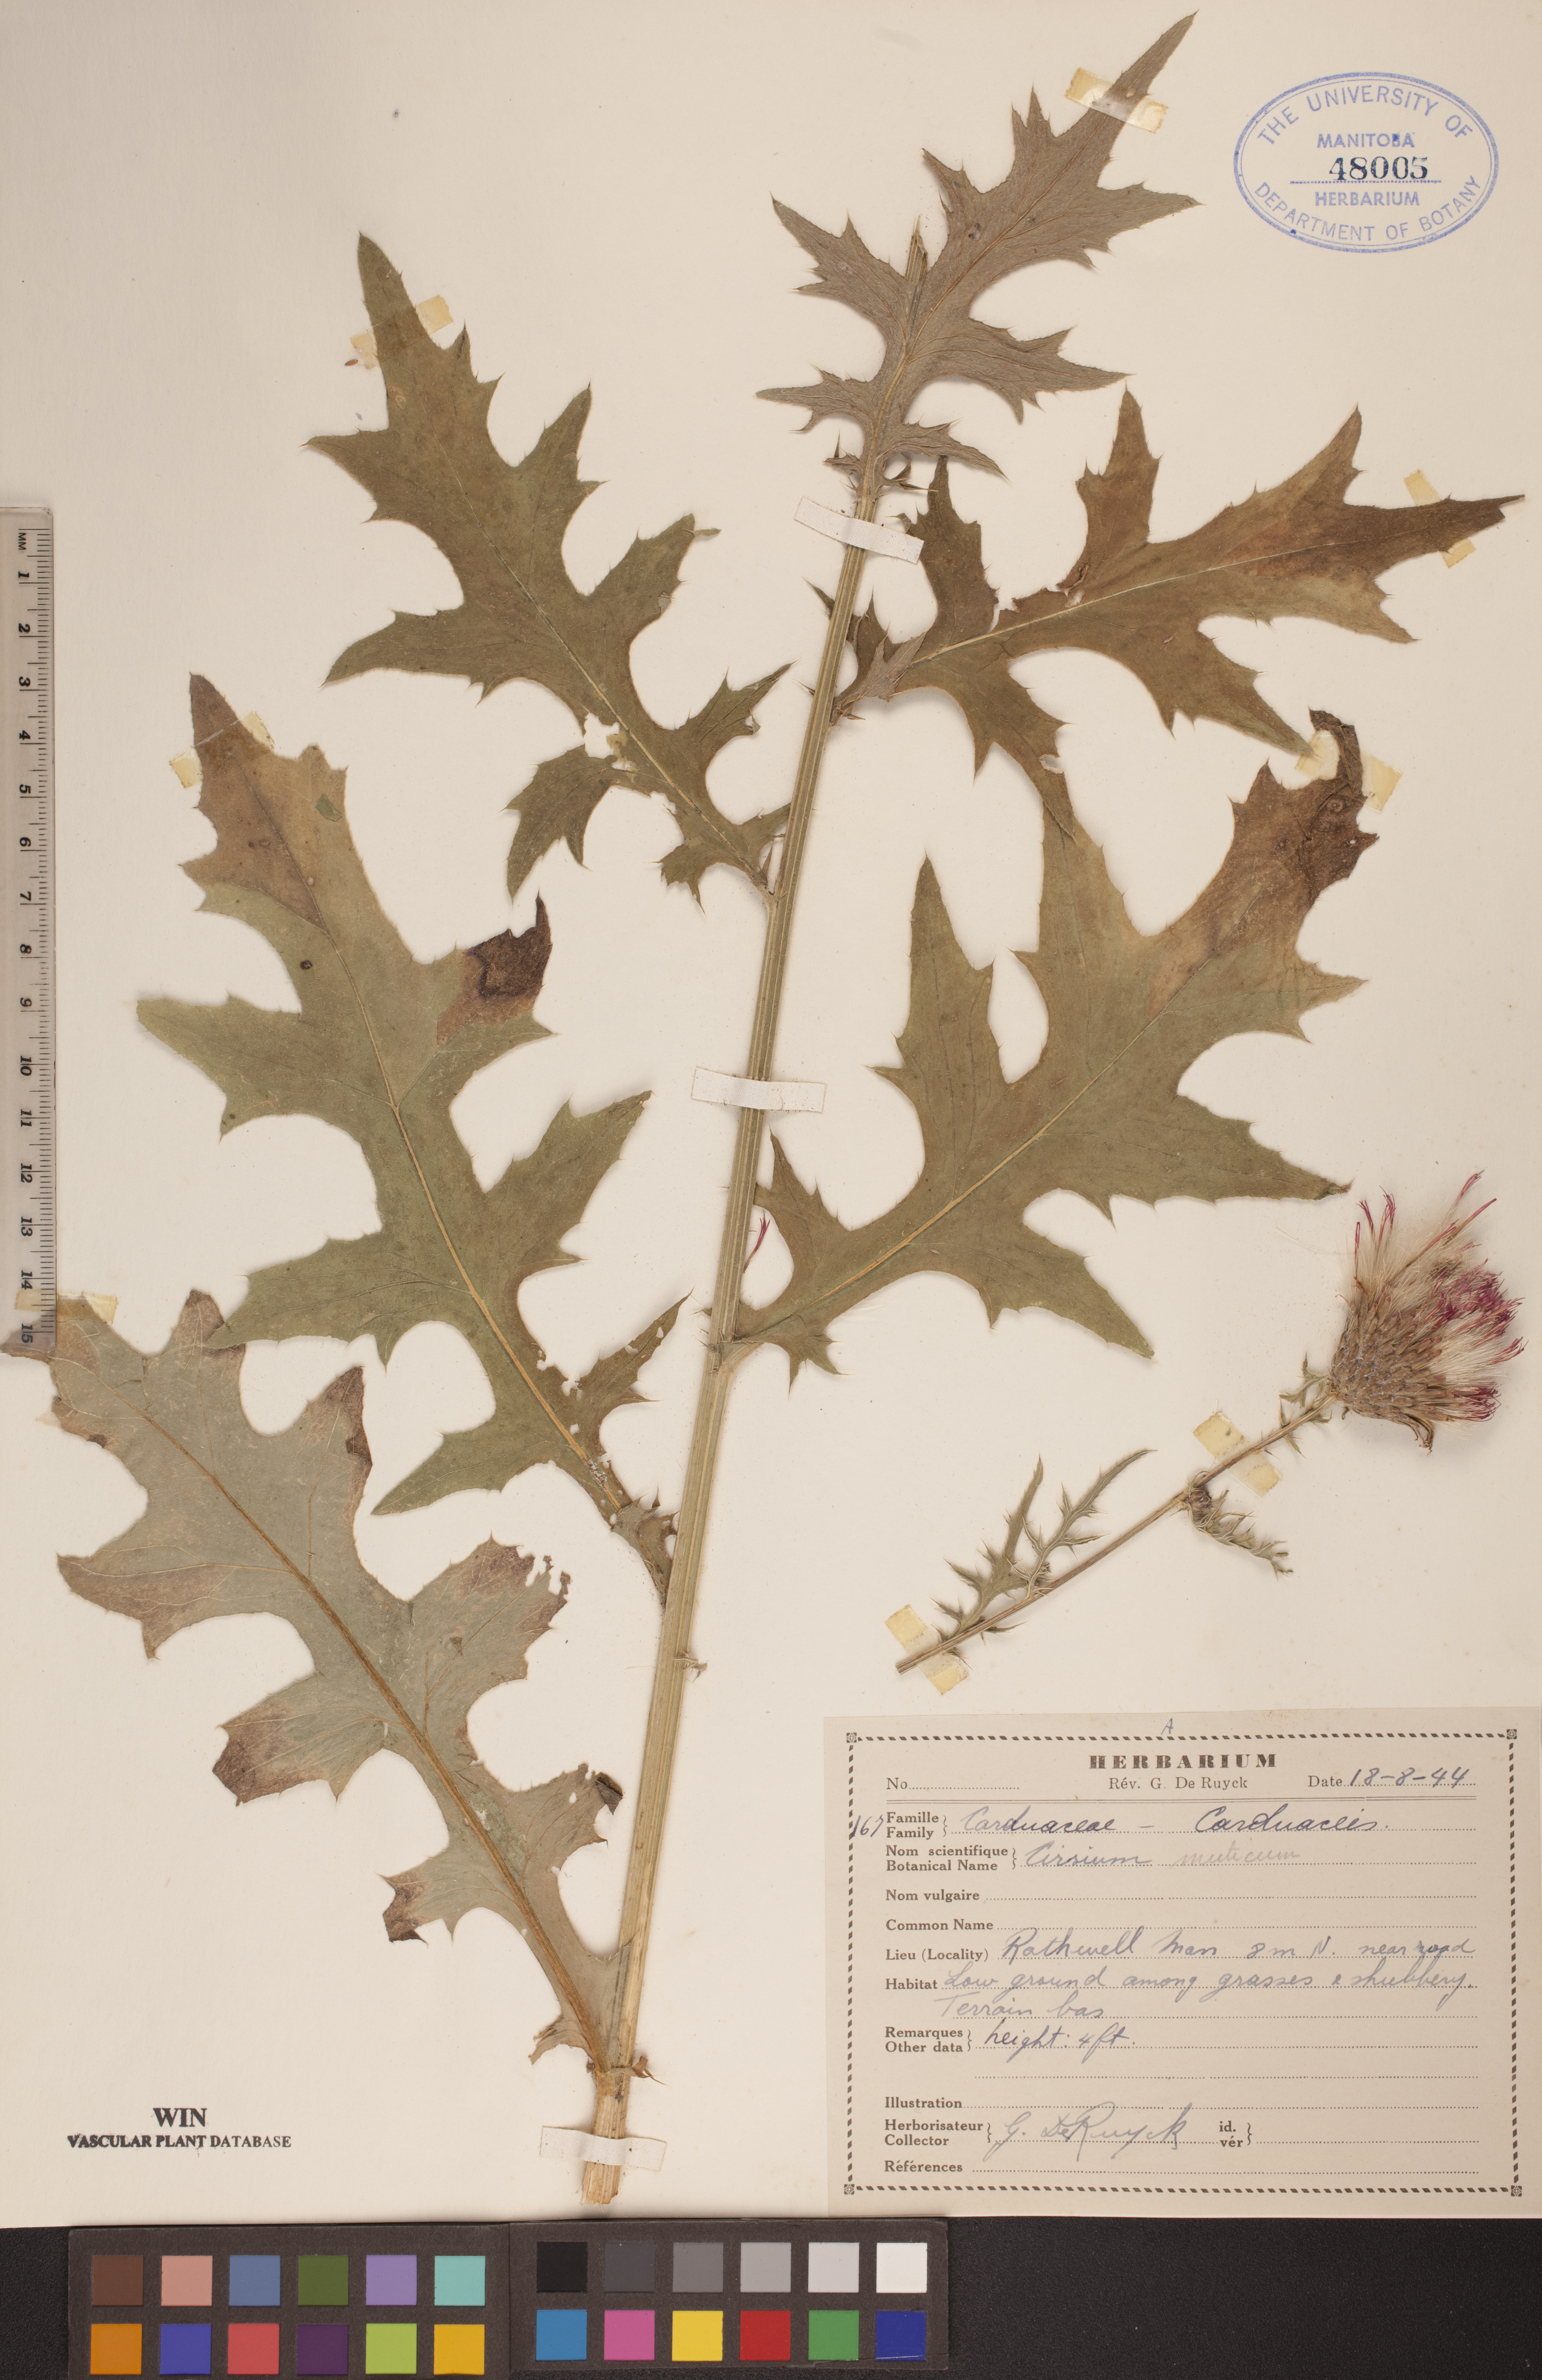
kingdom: Plantae
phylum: Tracheophyta
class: Magnoliopsida
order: Asterales
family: Asteraceae
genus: Cirsium
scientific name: Cirsium muticum
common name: Dunce-nettle
